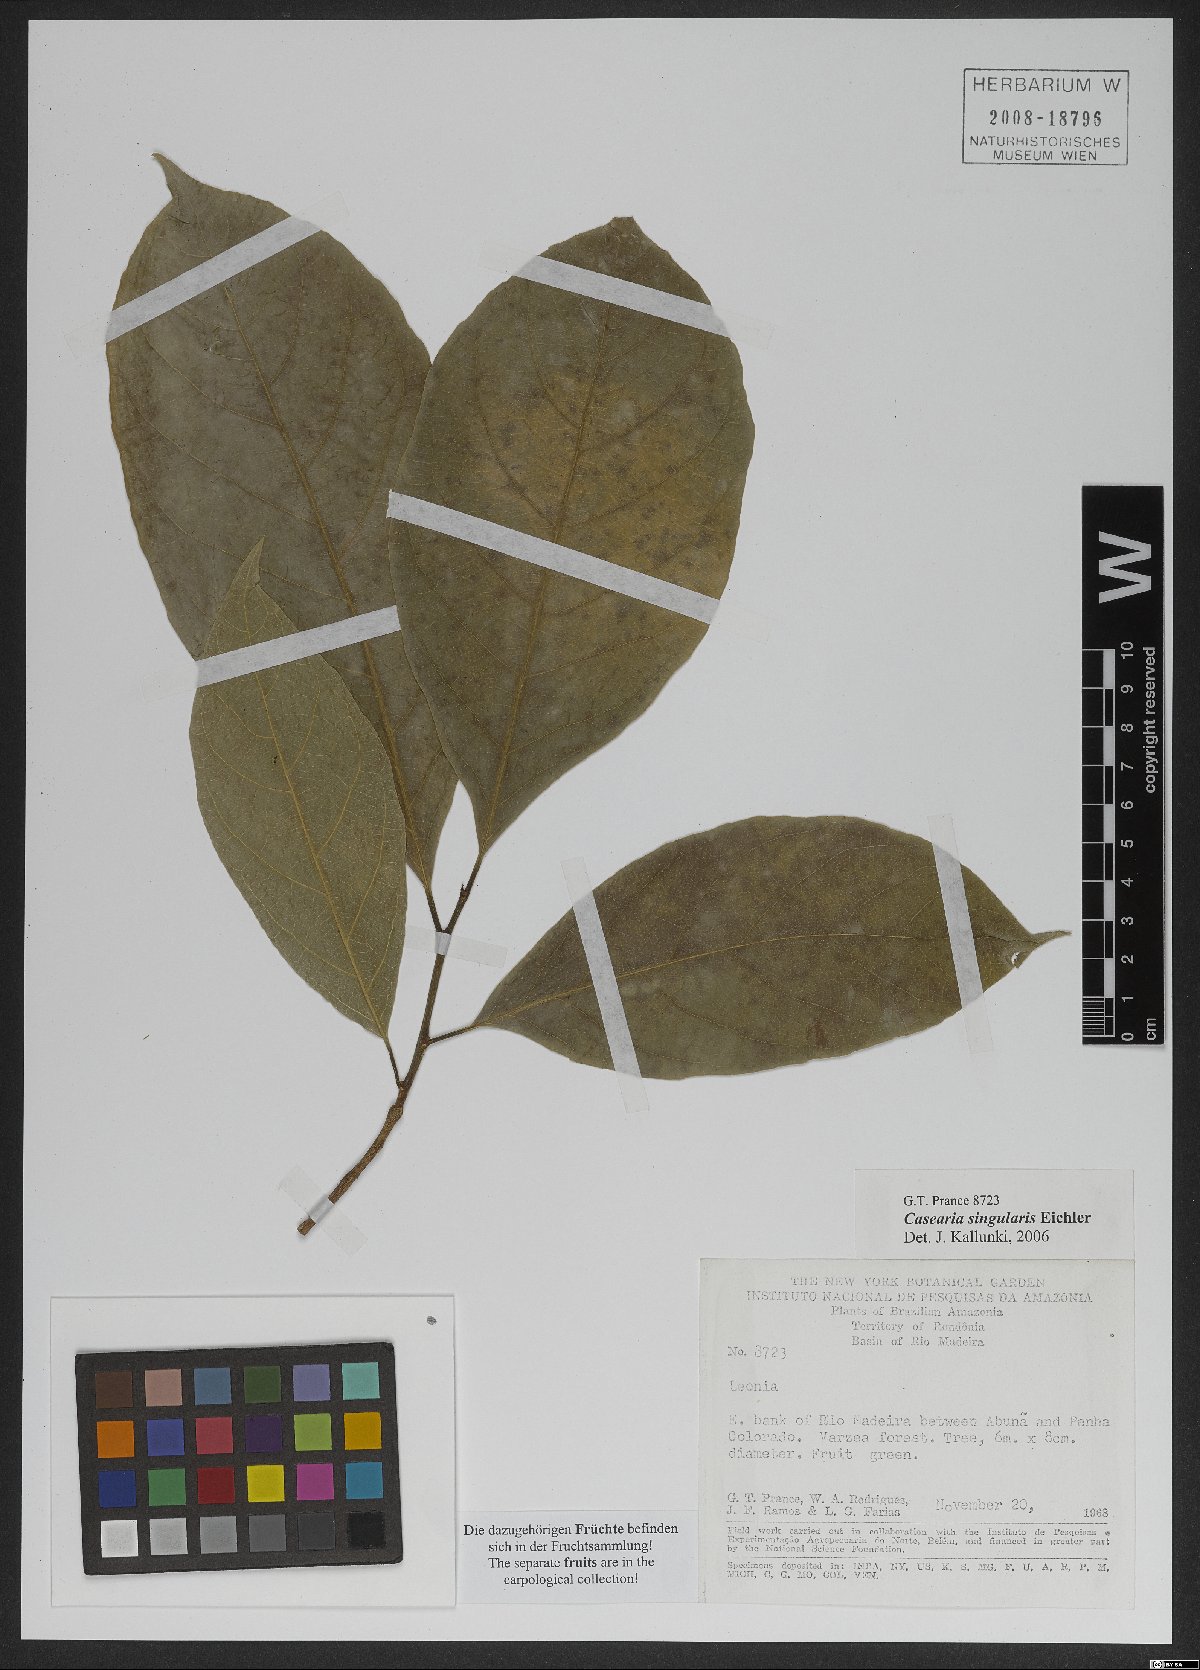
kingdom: Plantae
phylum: Tracheophyta
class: Magnoliopsida
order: Malpighiales
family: Salicaceae
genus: Casearia
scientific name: Casearia singularis
